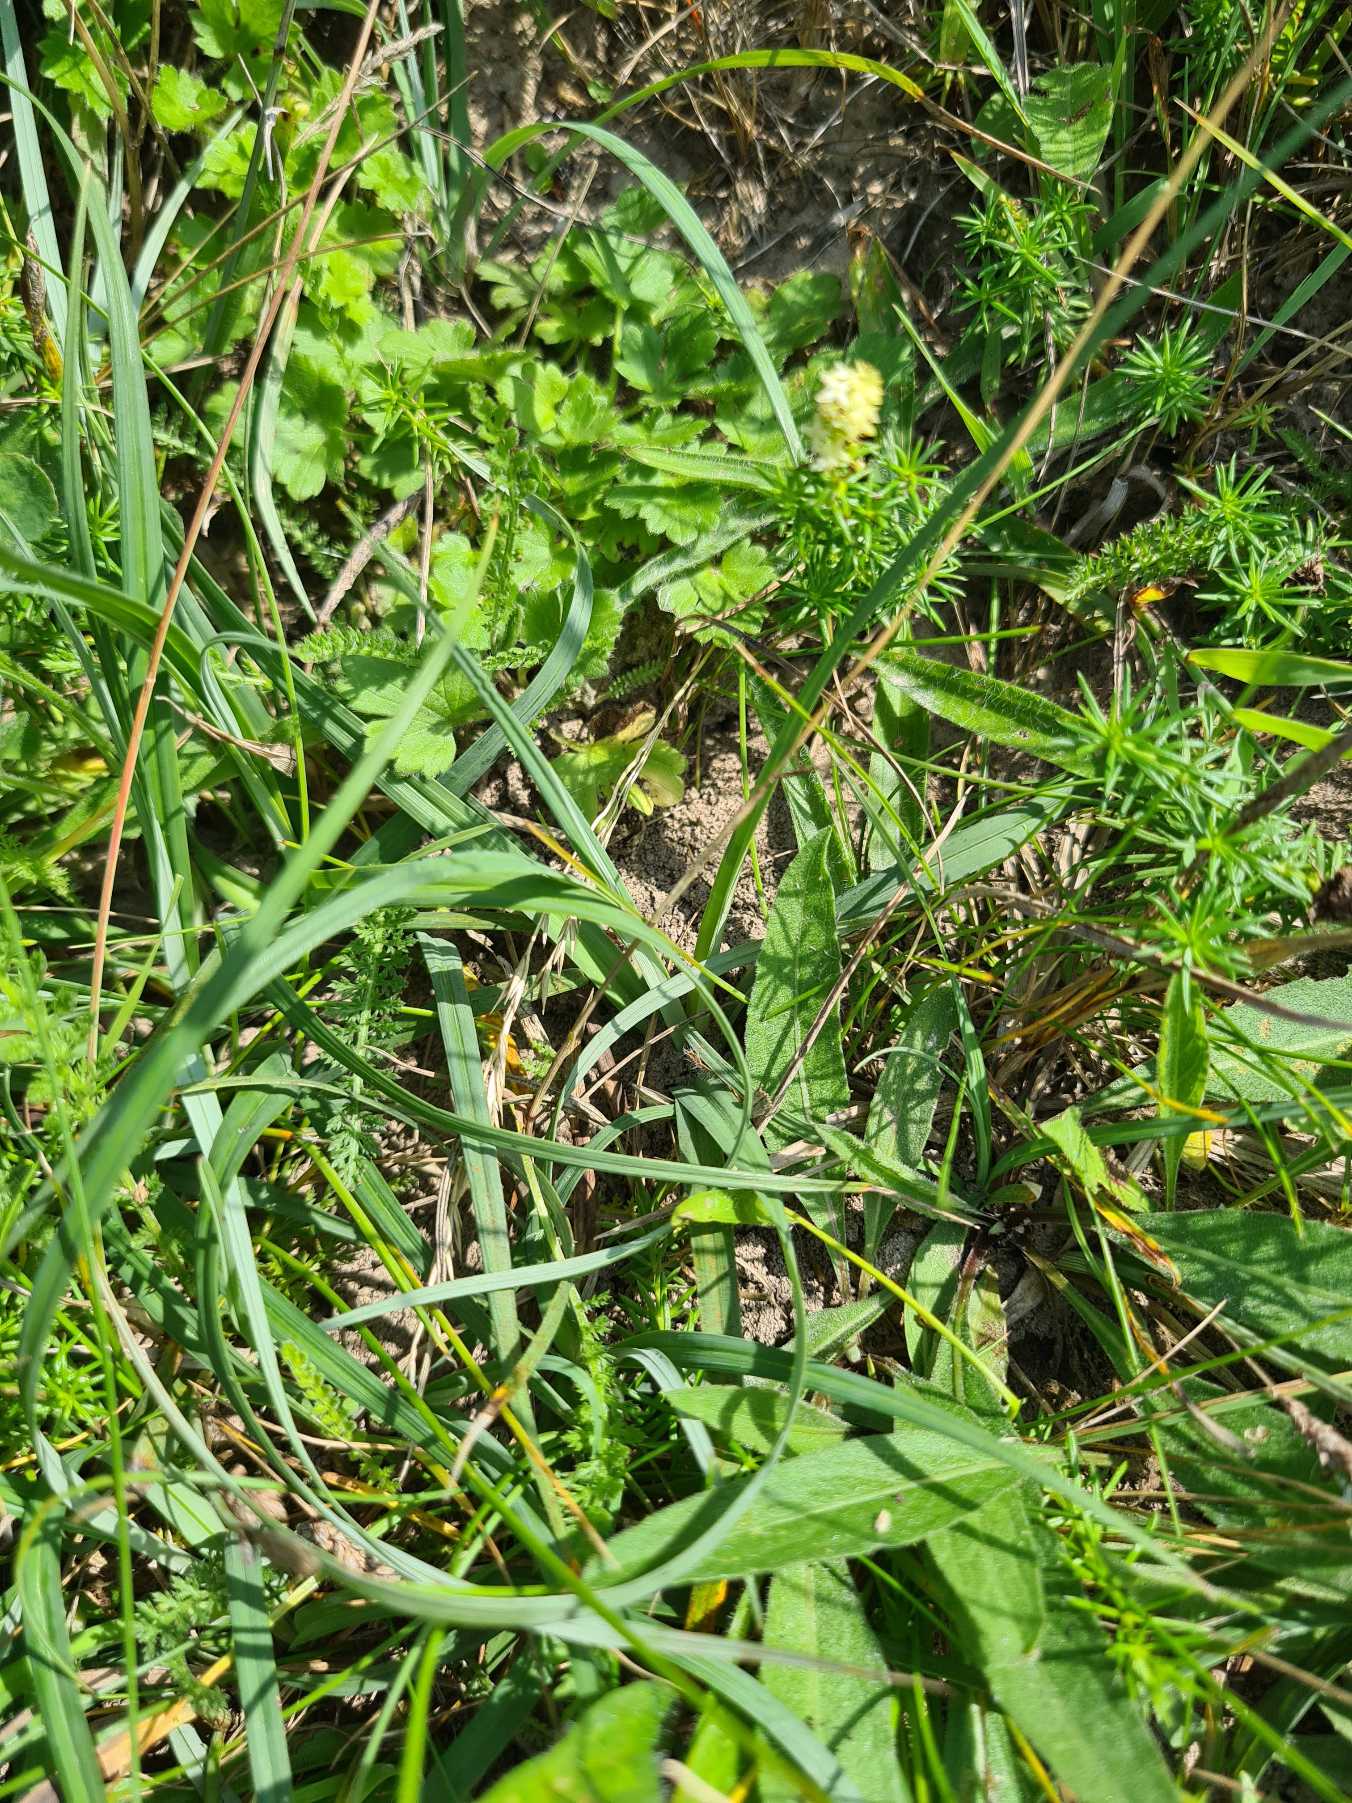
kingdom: Plantae
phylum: Tracheophyta
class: Liliopsida
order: Poales
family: Cyperaceae
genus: Carex
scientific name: Carex flacca
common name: Blågrøn star
